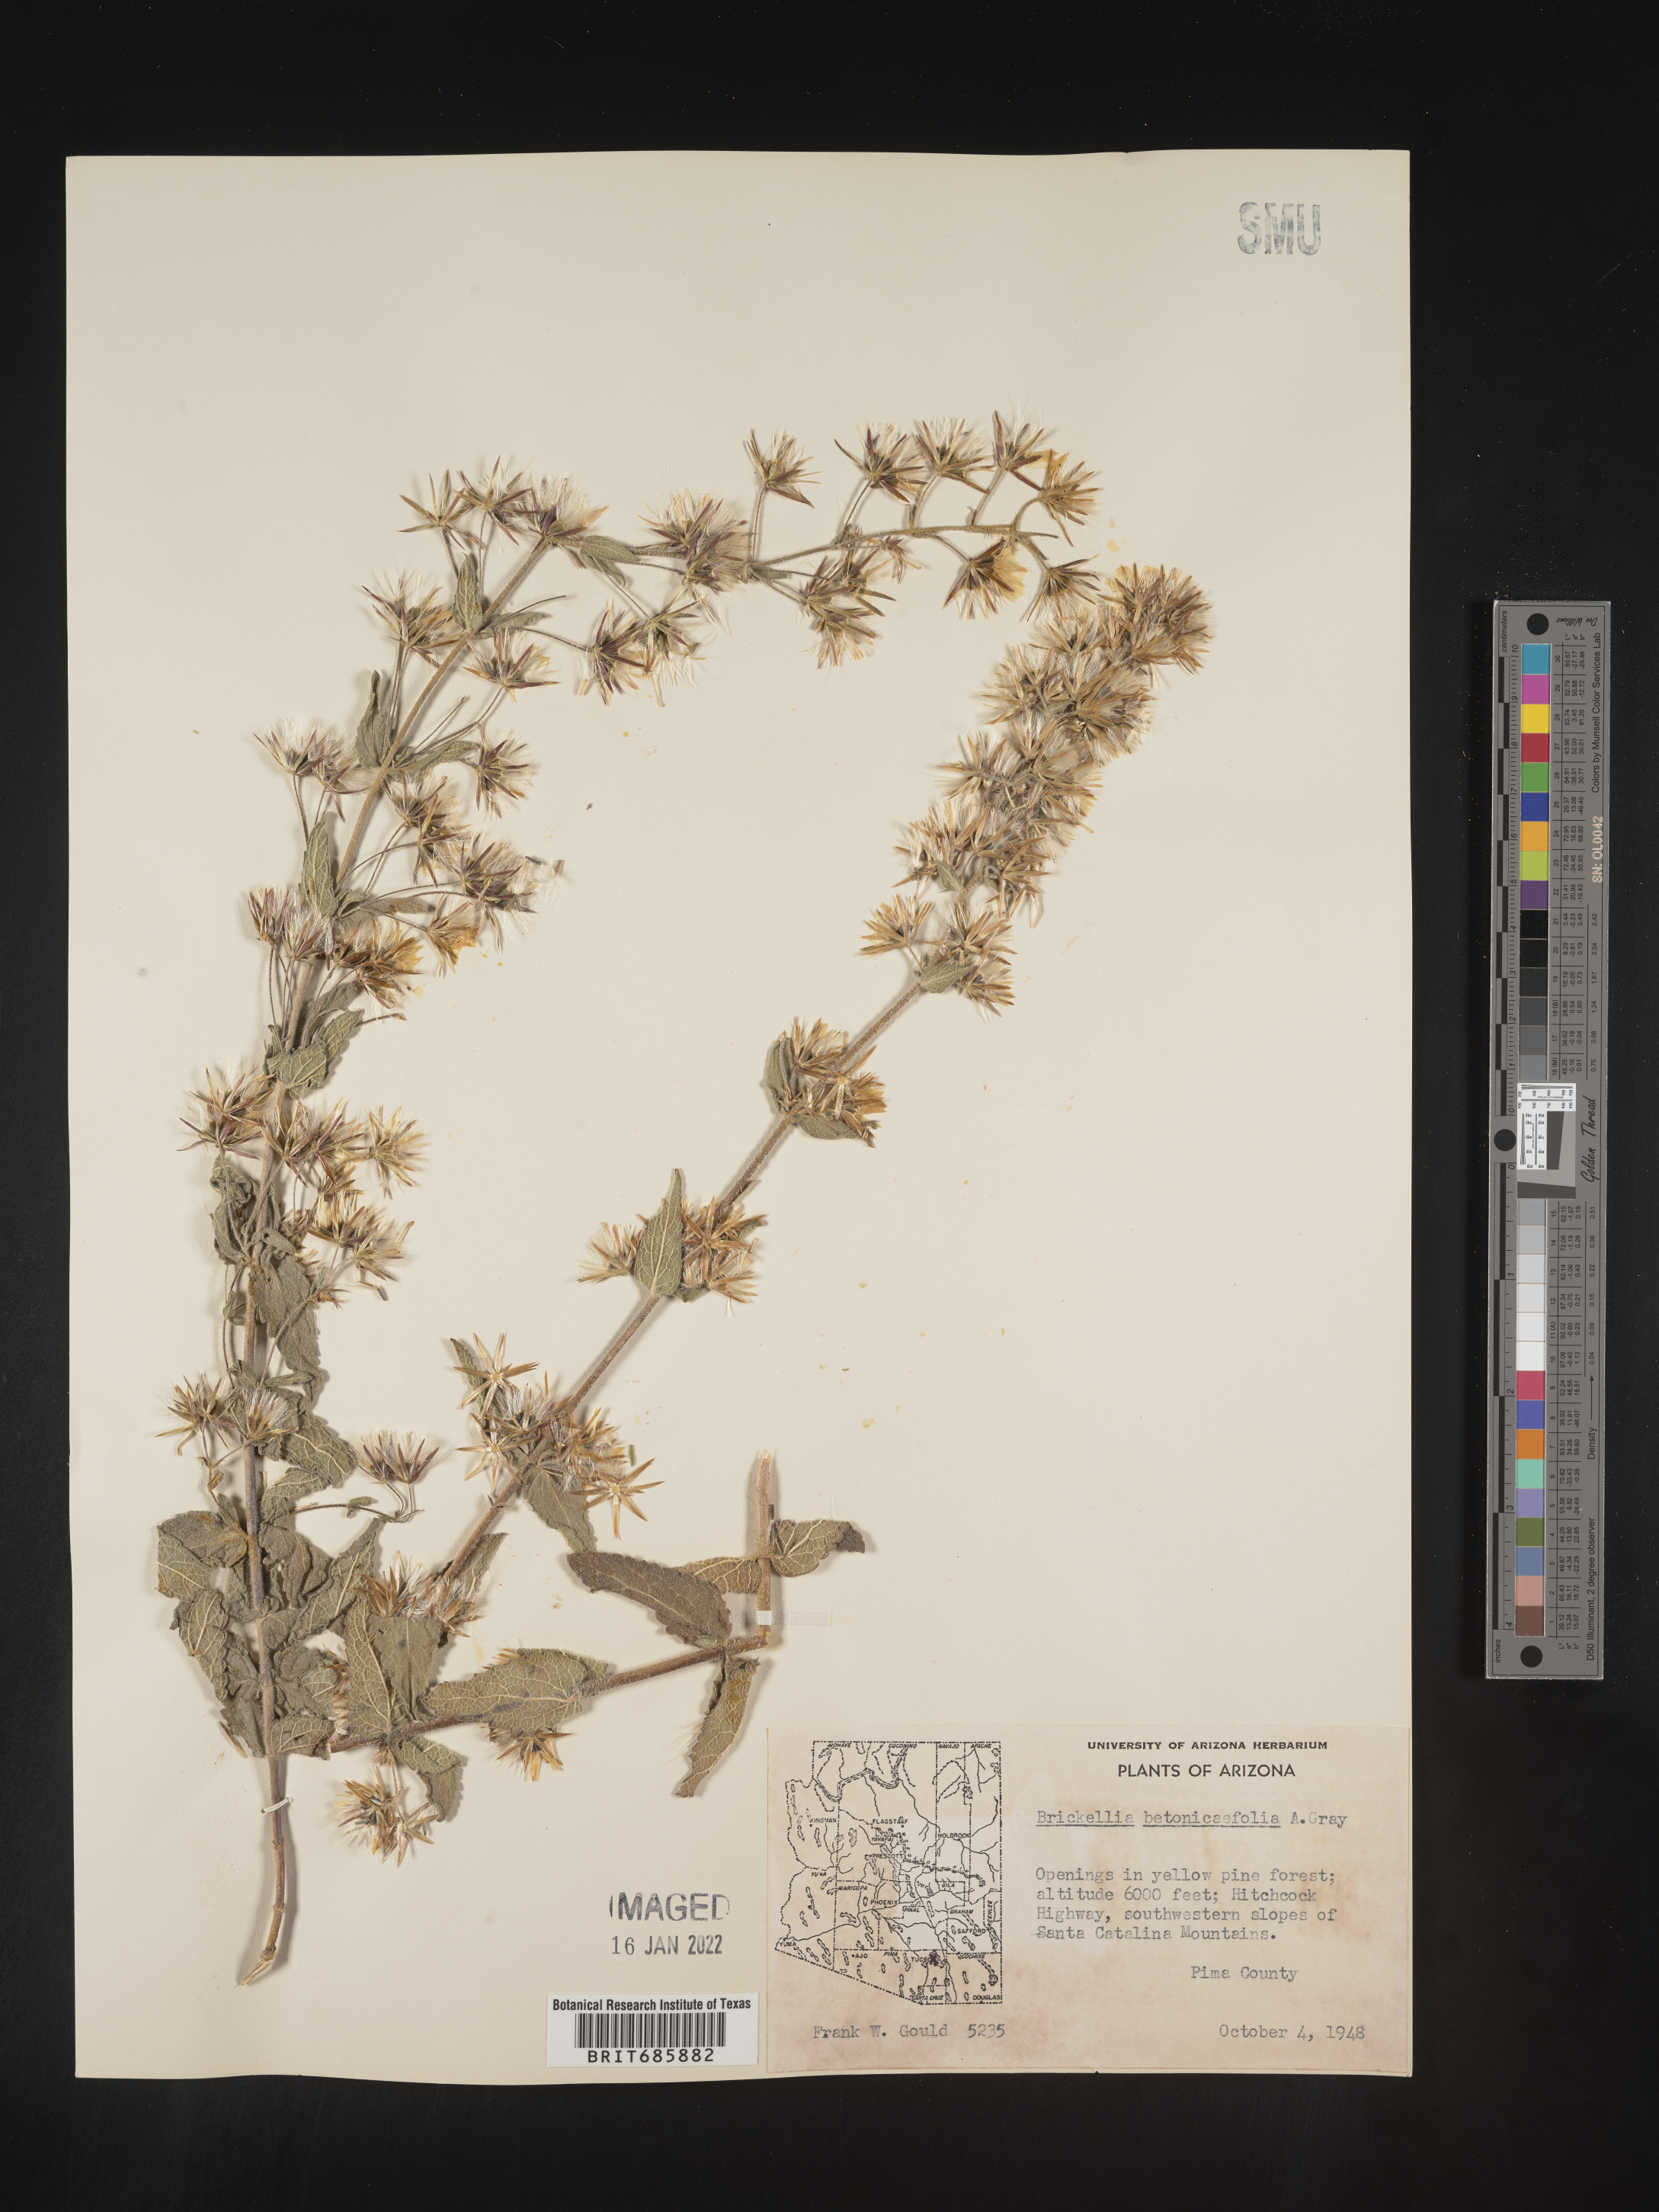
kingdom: Plantae
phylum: Tracheophyta
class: Magnoliopsida
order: Asterales
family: Asteraceae
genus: Brickellia
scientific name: Brickellia betonicifolia
